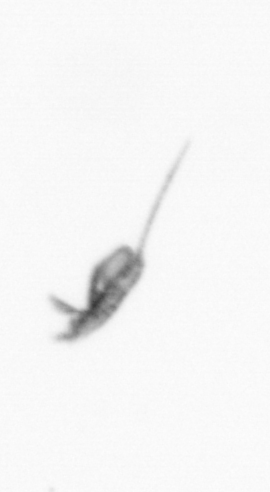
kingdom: Animalia
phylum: Arthropoda
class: Copepoda
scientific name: Copepoda
